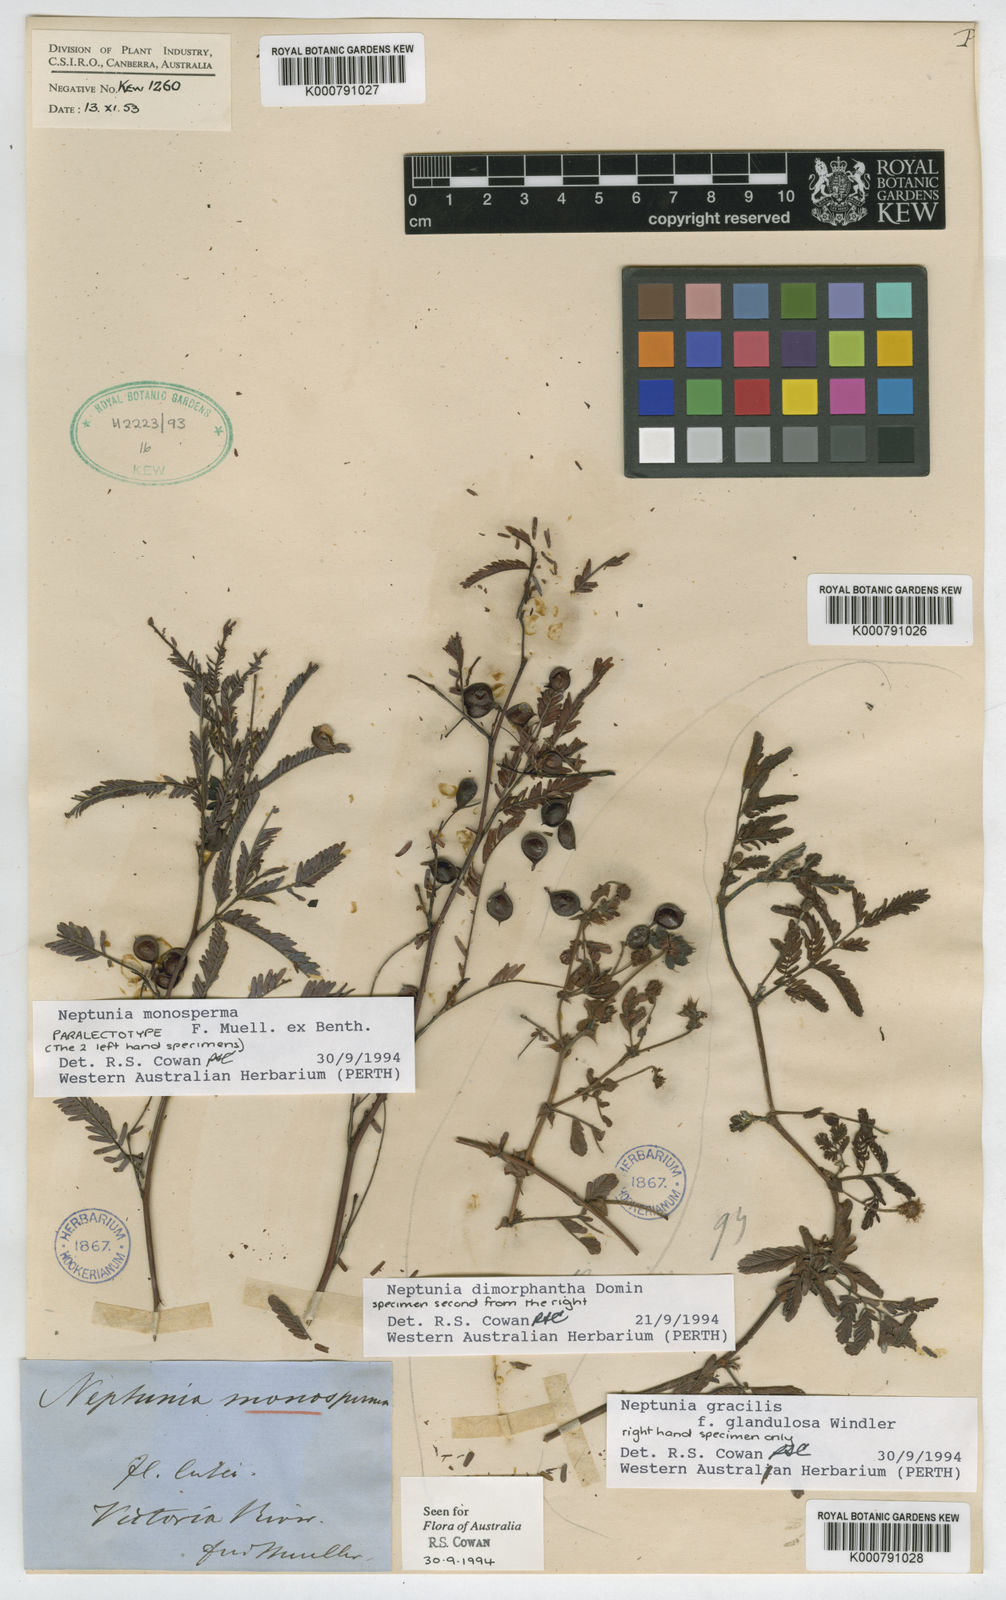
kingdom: Plantae
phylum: Tracheophyta
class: Magnoliopsida
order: Fabales
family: Fabaceae
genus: Neptunia
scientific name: Neptunia monosperma
